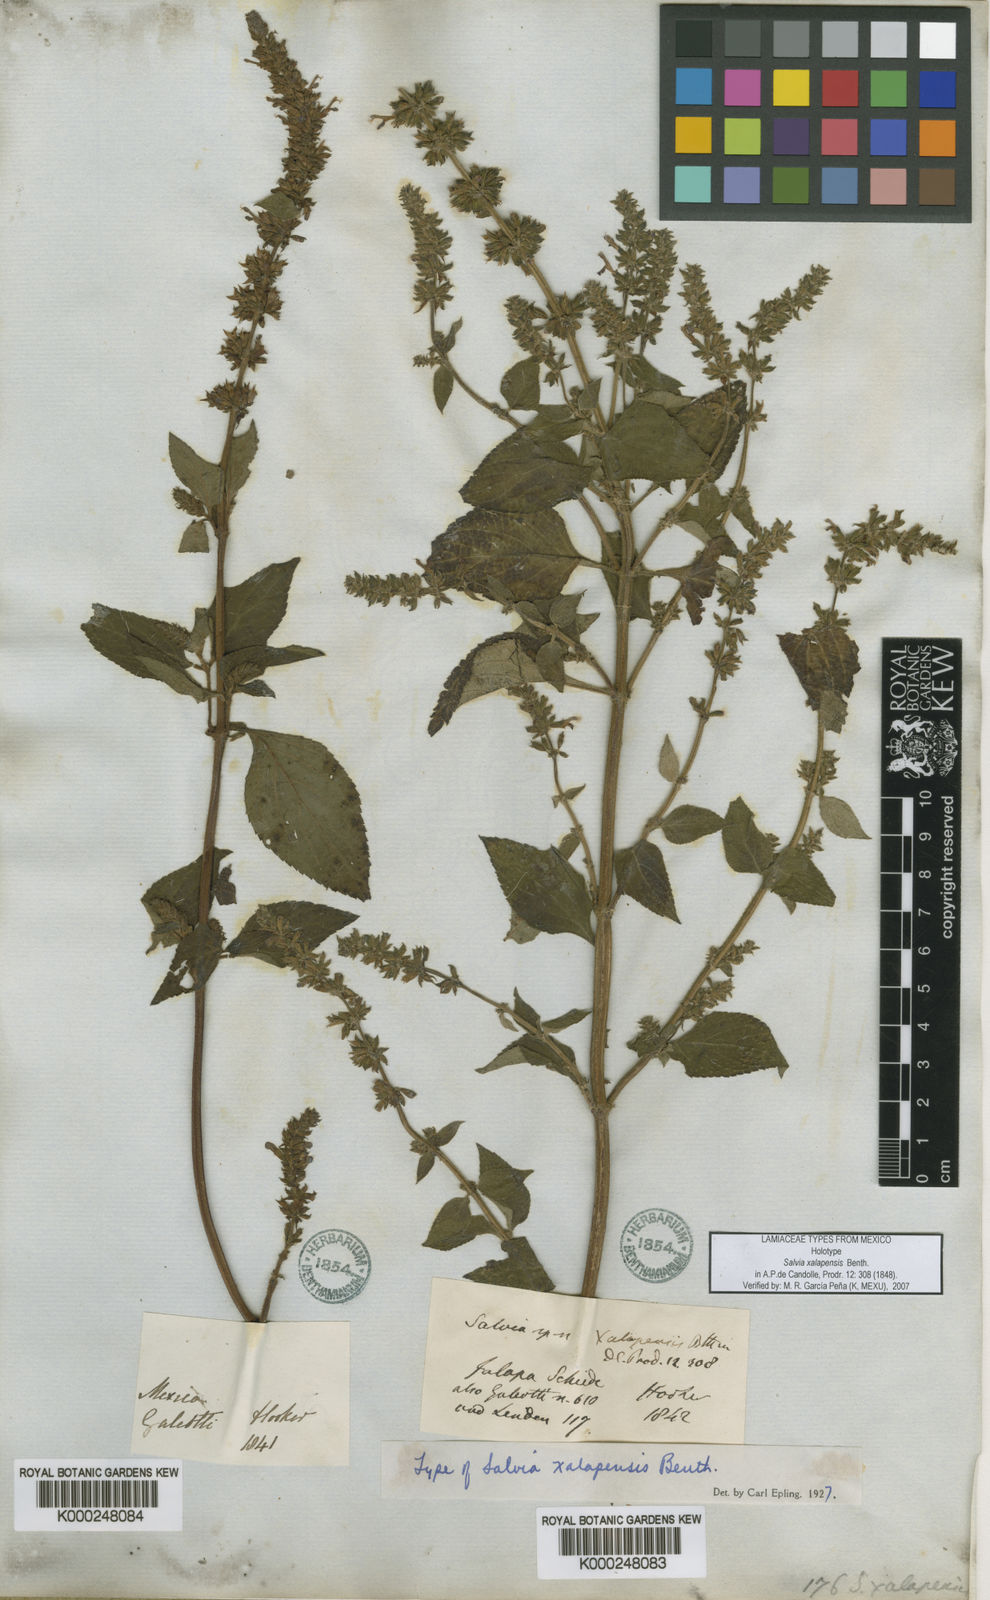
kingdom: Plantae
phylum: Tracheophyta
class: Magnoliopsida
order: Lamiales
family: Lamiaceae
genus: Salvia
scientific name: Salvia xalapensis
